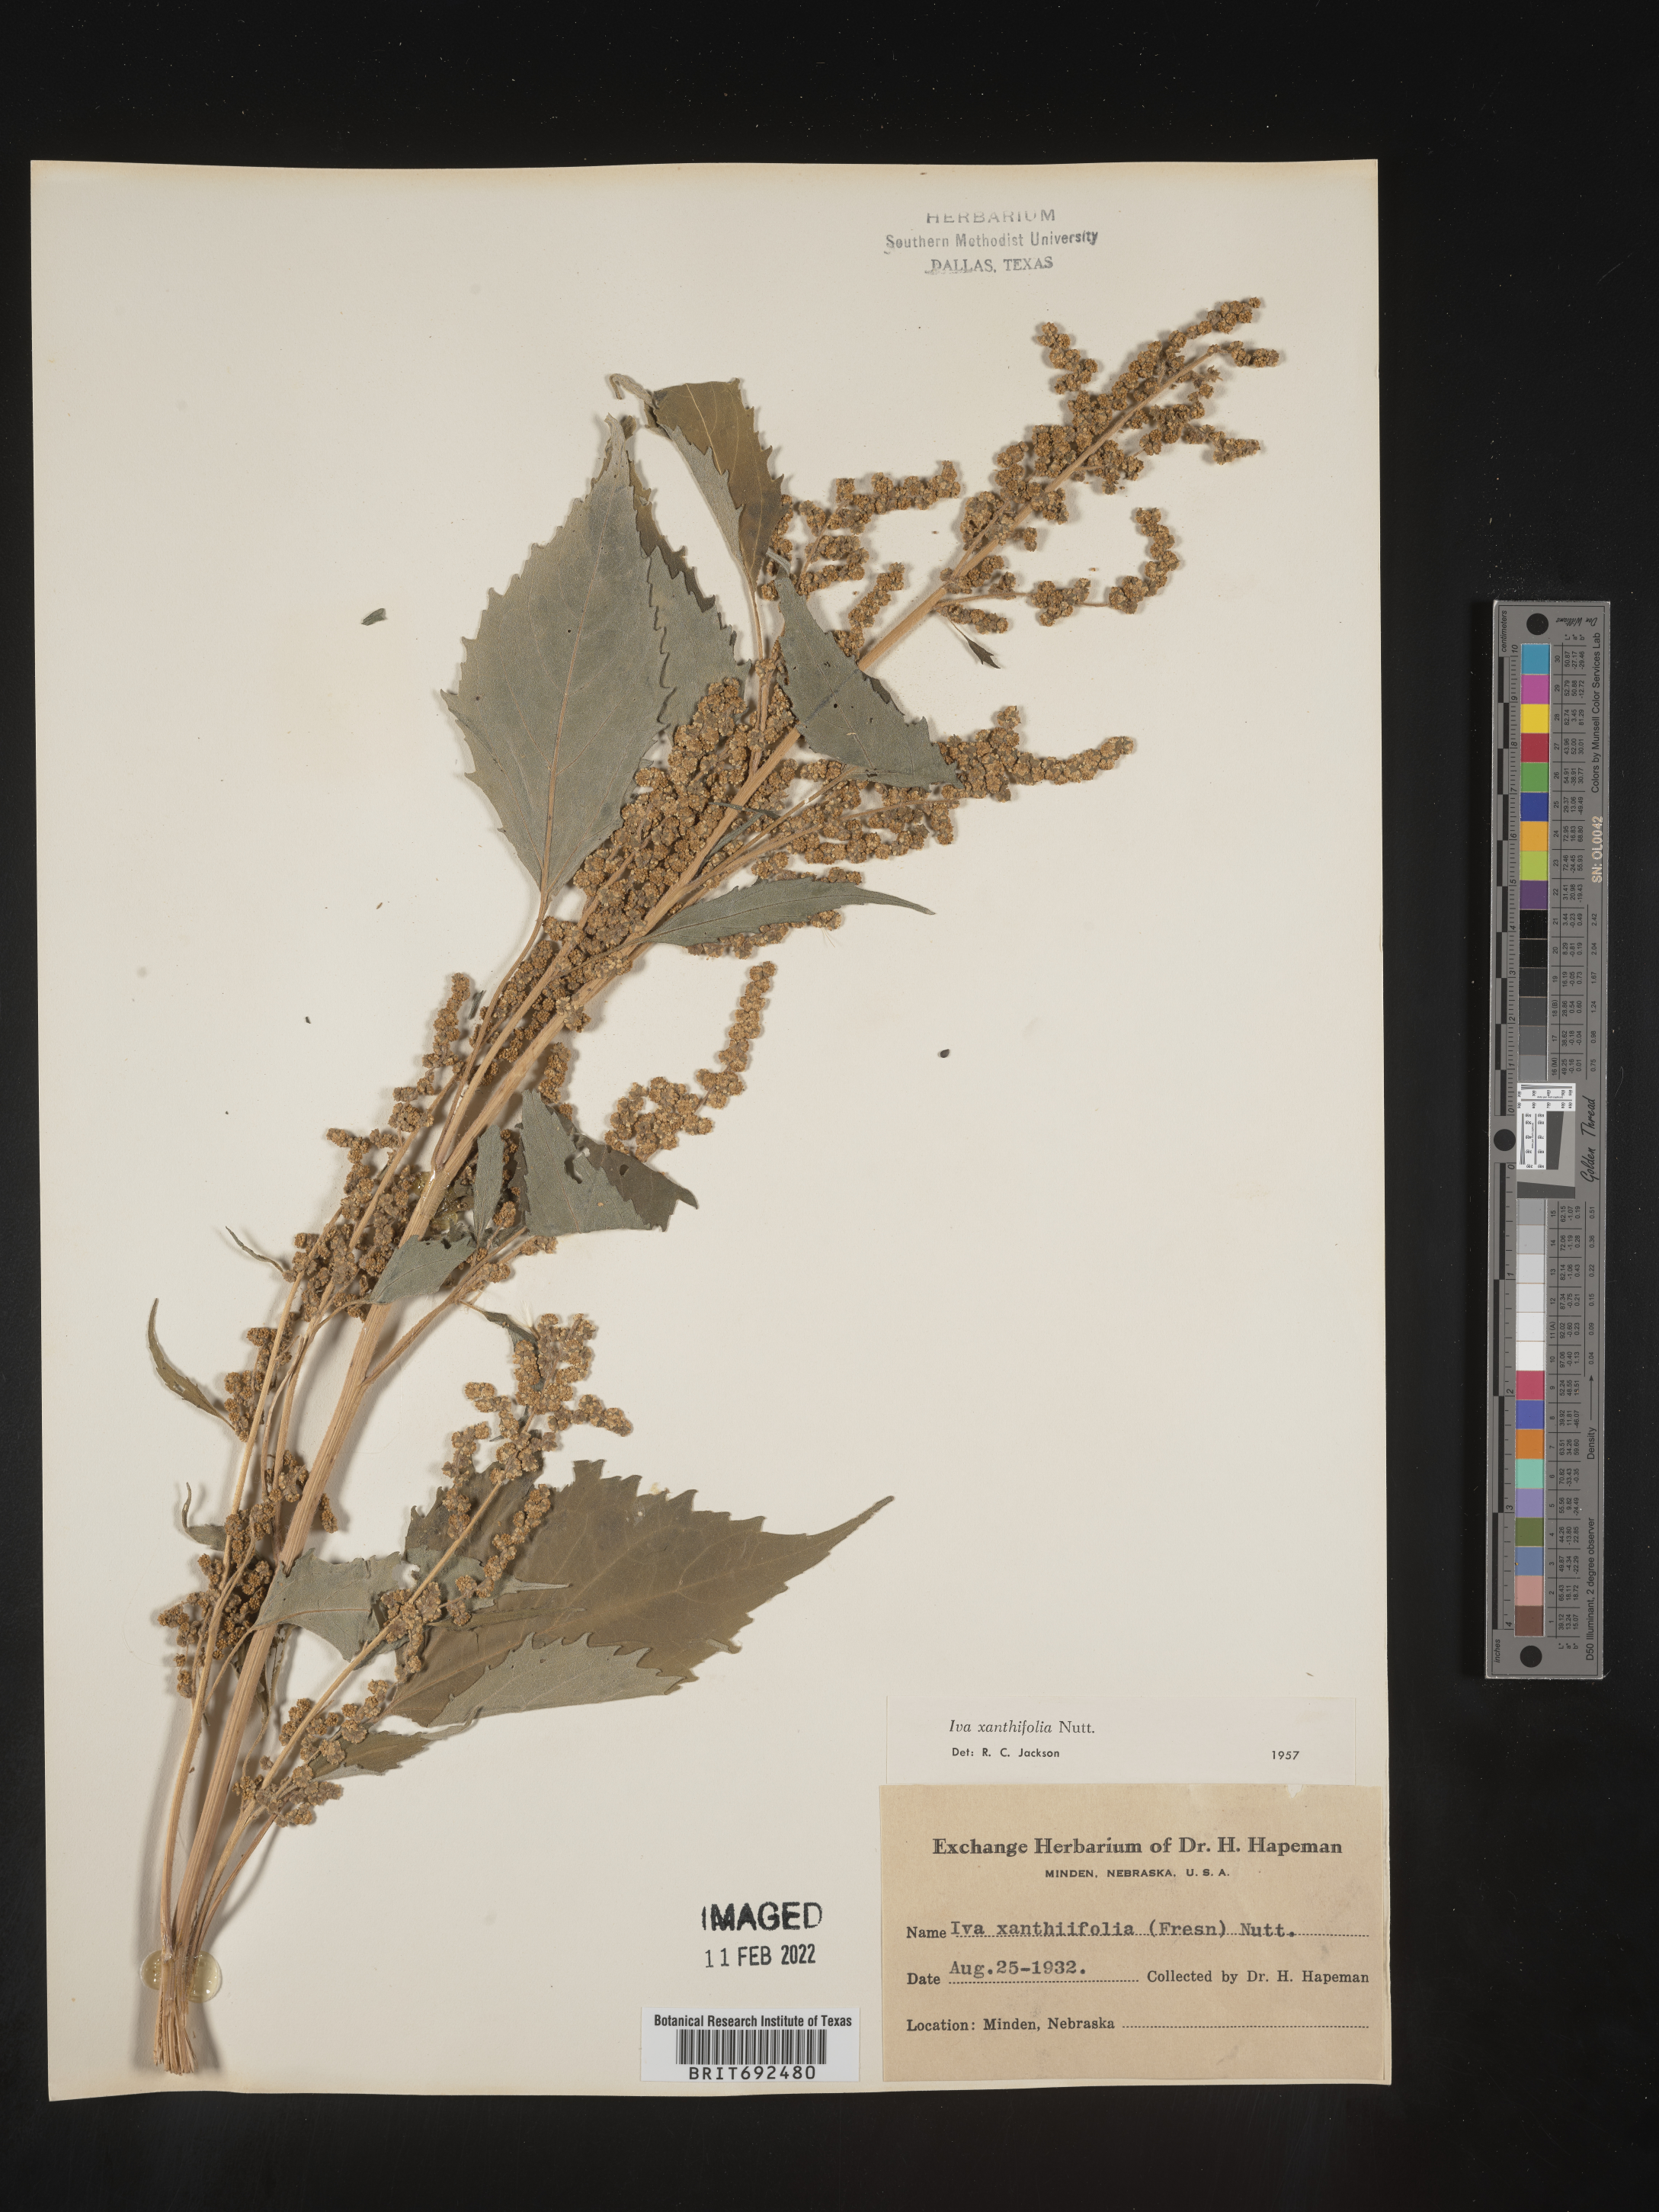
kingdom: Plantae
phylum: Tracheophyta
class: Magnoliopsida
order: Asterales
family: Asteraceae
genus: Cyclachaena
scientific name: Cyclachaena
